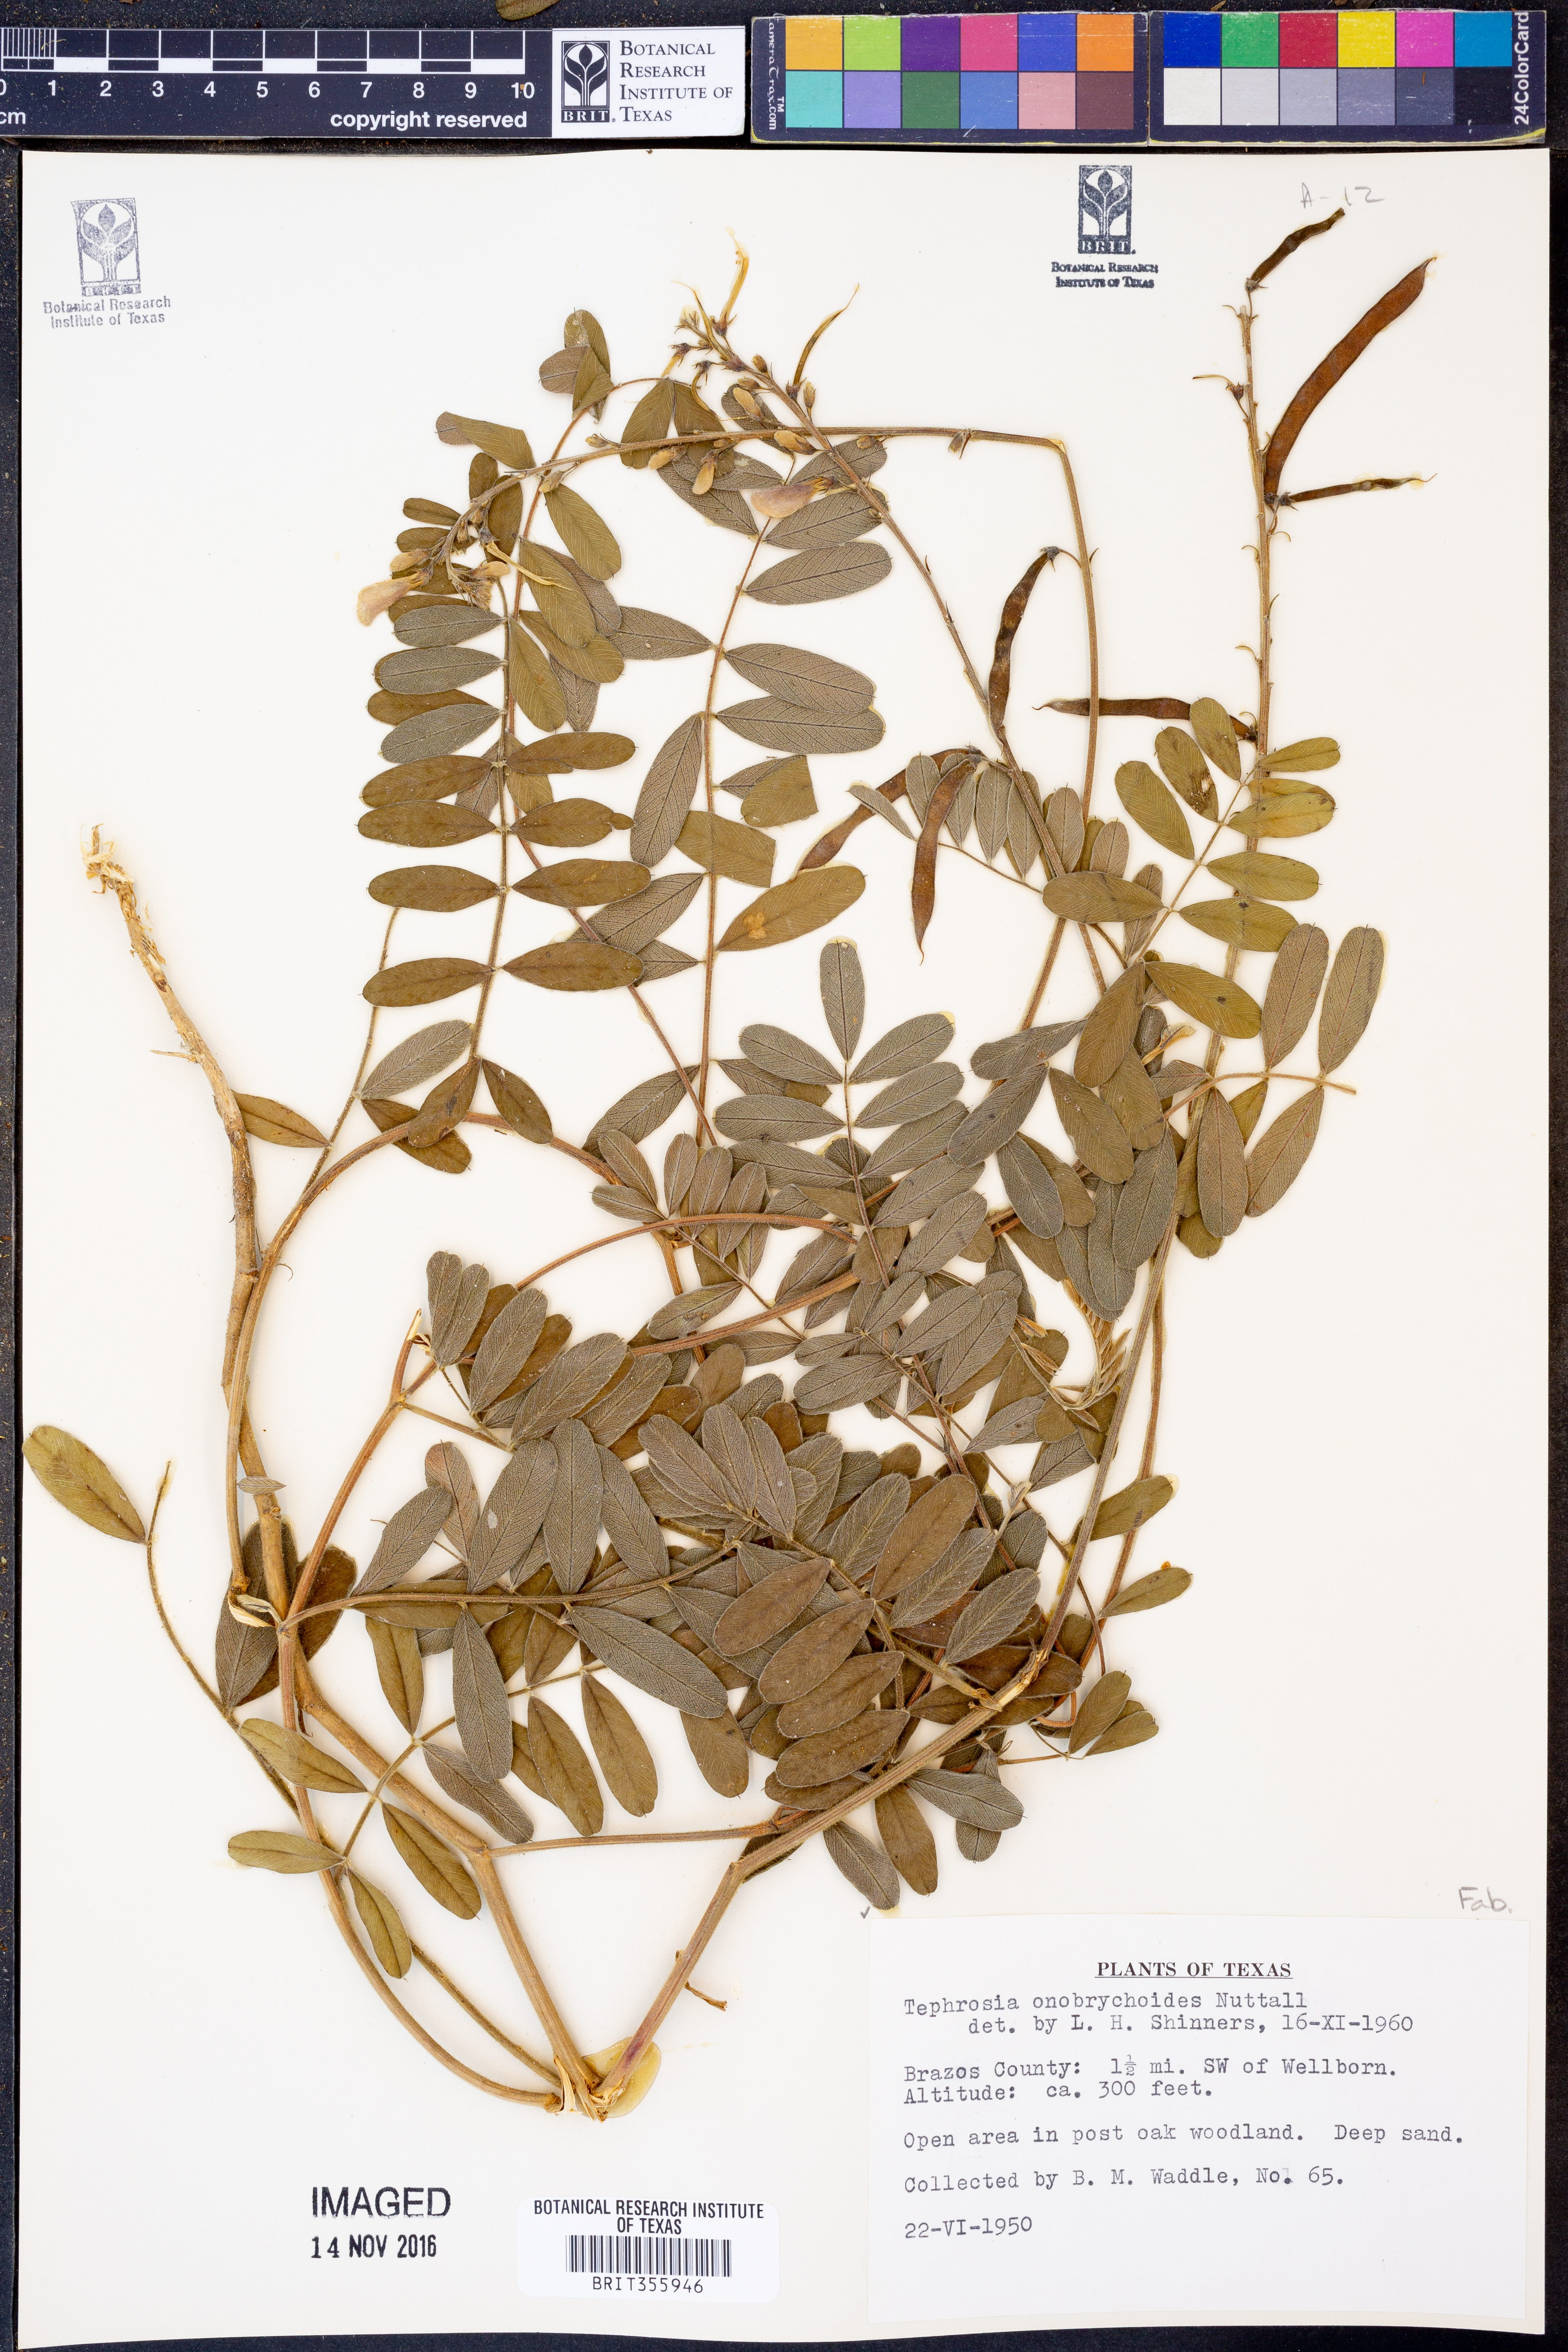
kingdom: Plantae
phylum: Tracheophyta
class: Magnoliopsida
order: Fabales
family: Fabaceae
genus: Tephrosia
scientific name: Tephrosia onobrychoides
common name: Multi-bloom hoary-pea
